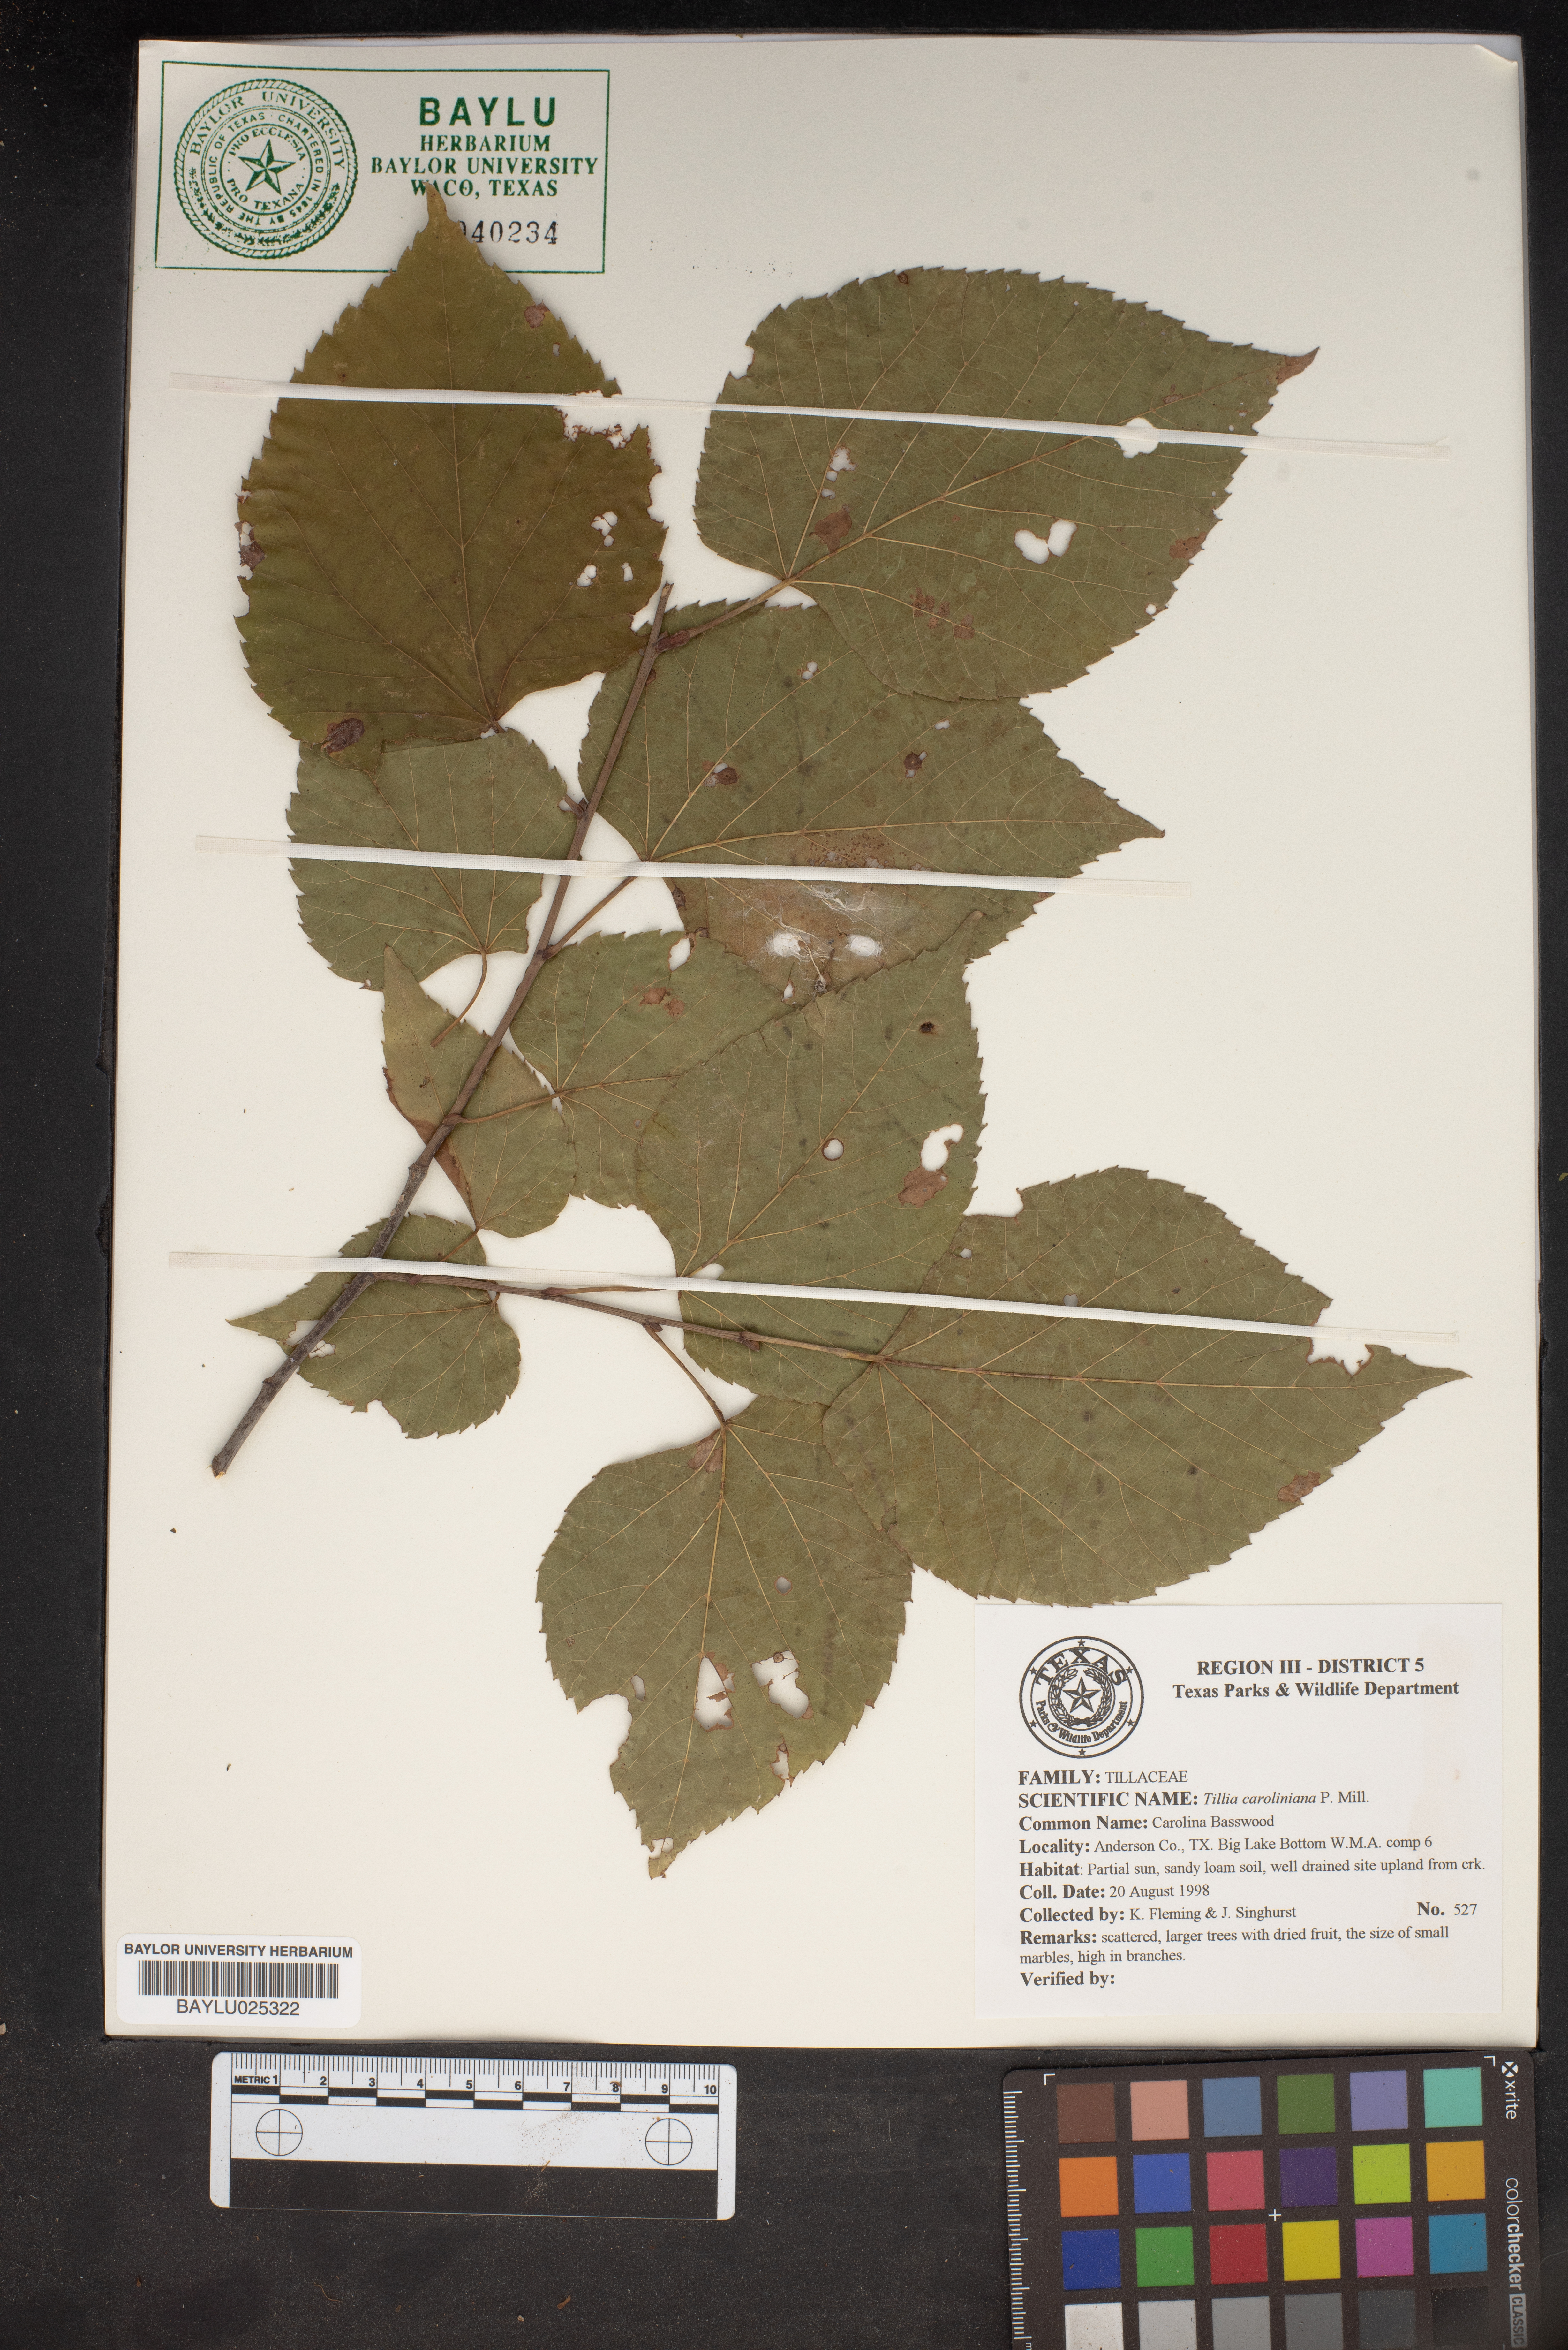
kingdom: Plantae
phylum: Tracheophyta
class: Magnoliopsida
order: Malvales
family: Malvaceae
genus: Tilia
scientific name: Tilia americana
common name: Basswood
